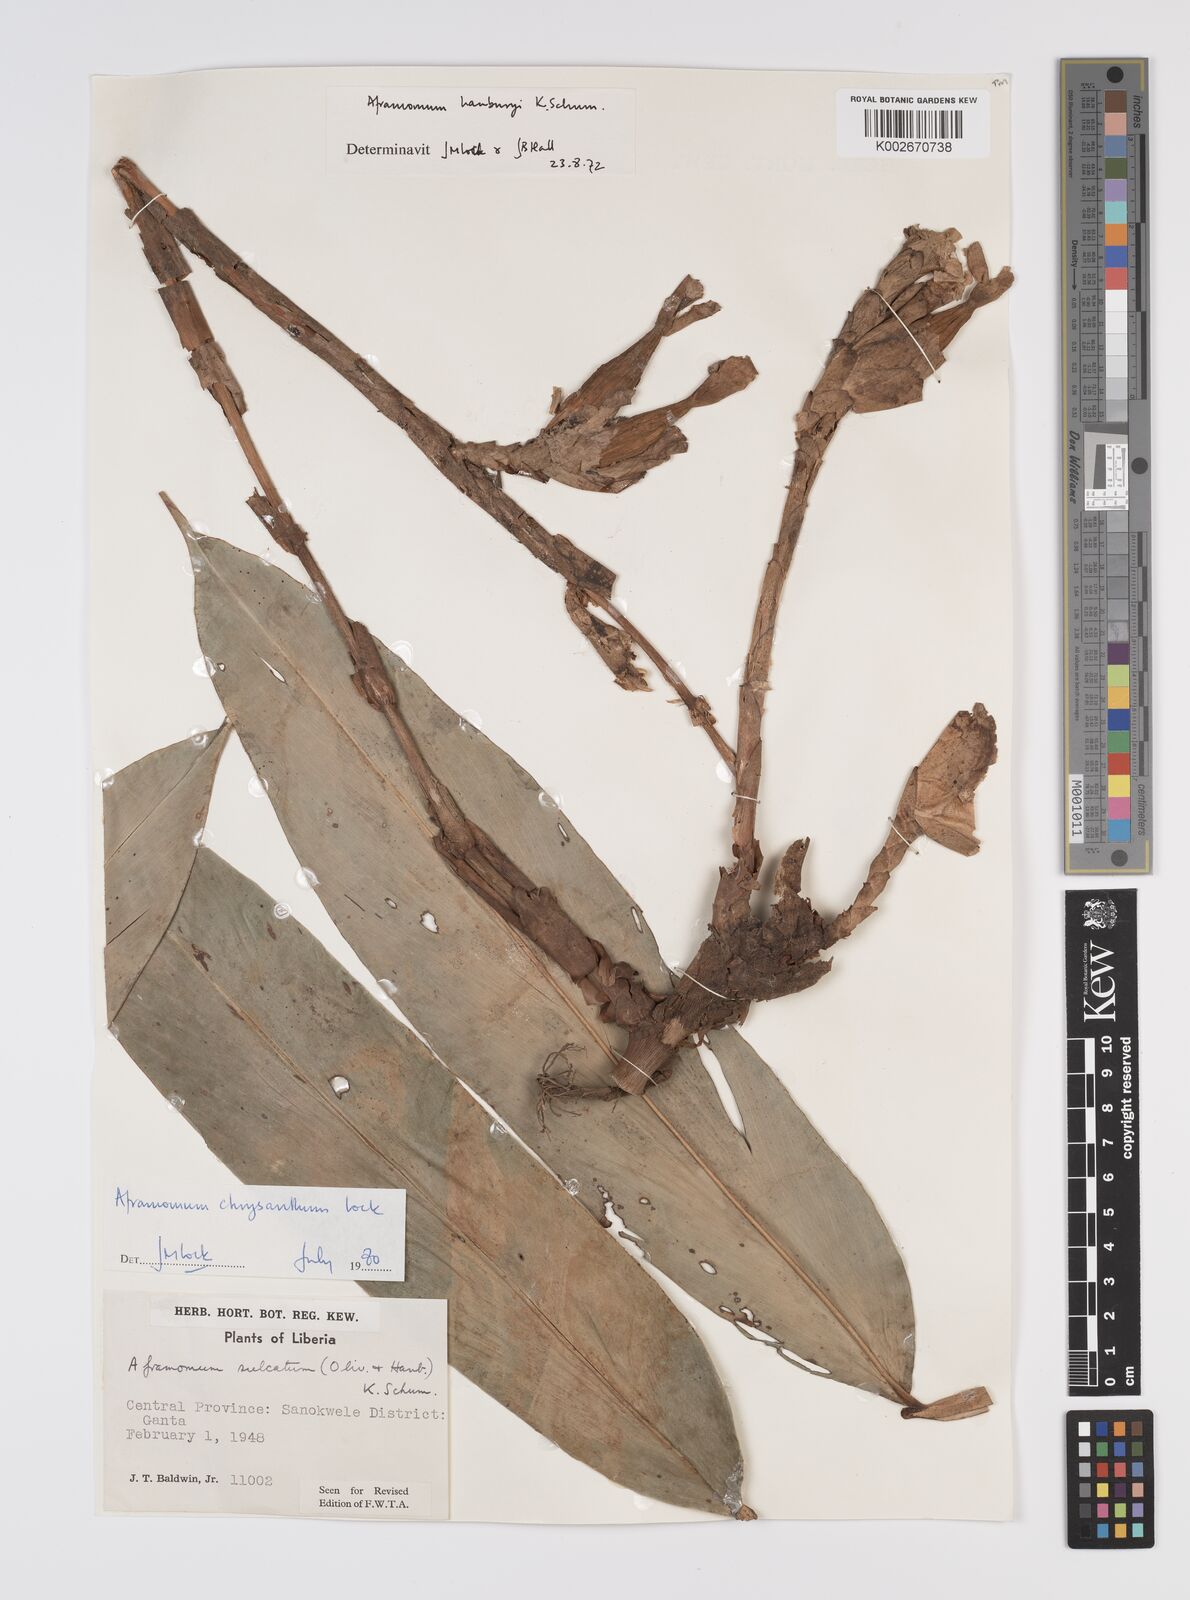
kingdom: Plantae
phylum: Tracheophyta
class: Liliopsida
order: Zingiberales
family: Zingiberaceae
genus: Aframomum
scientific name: Aframomum chrysanthum
